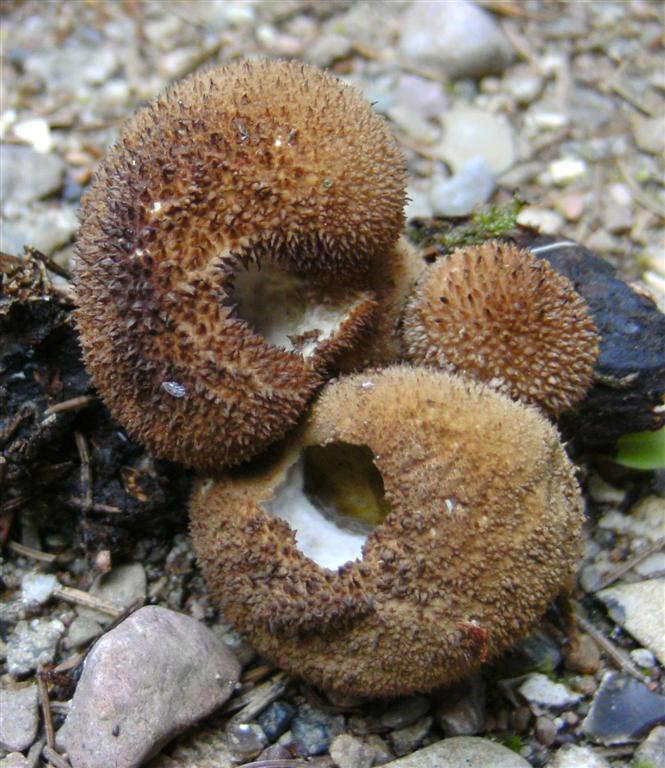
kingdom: Fungi
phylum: Basidiomycota
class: Agaricomycetes
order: Agaricales
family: Lycoperdaceae
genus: Lycoperdon
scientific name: Lycoperdon nigrescens
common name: sortagtig støvbold
